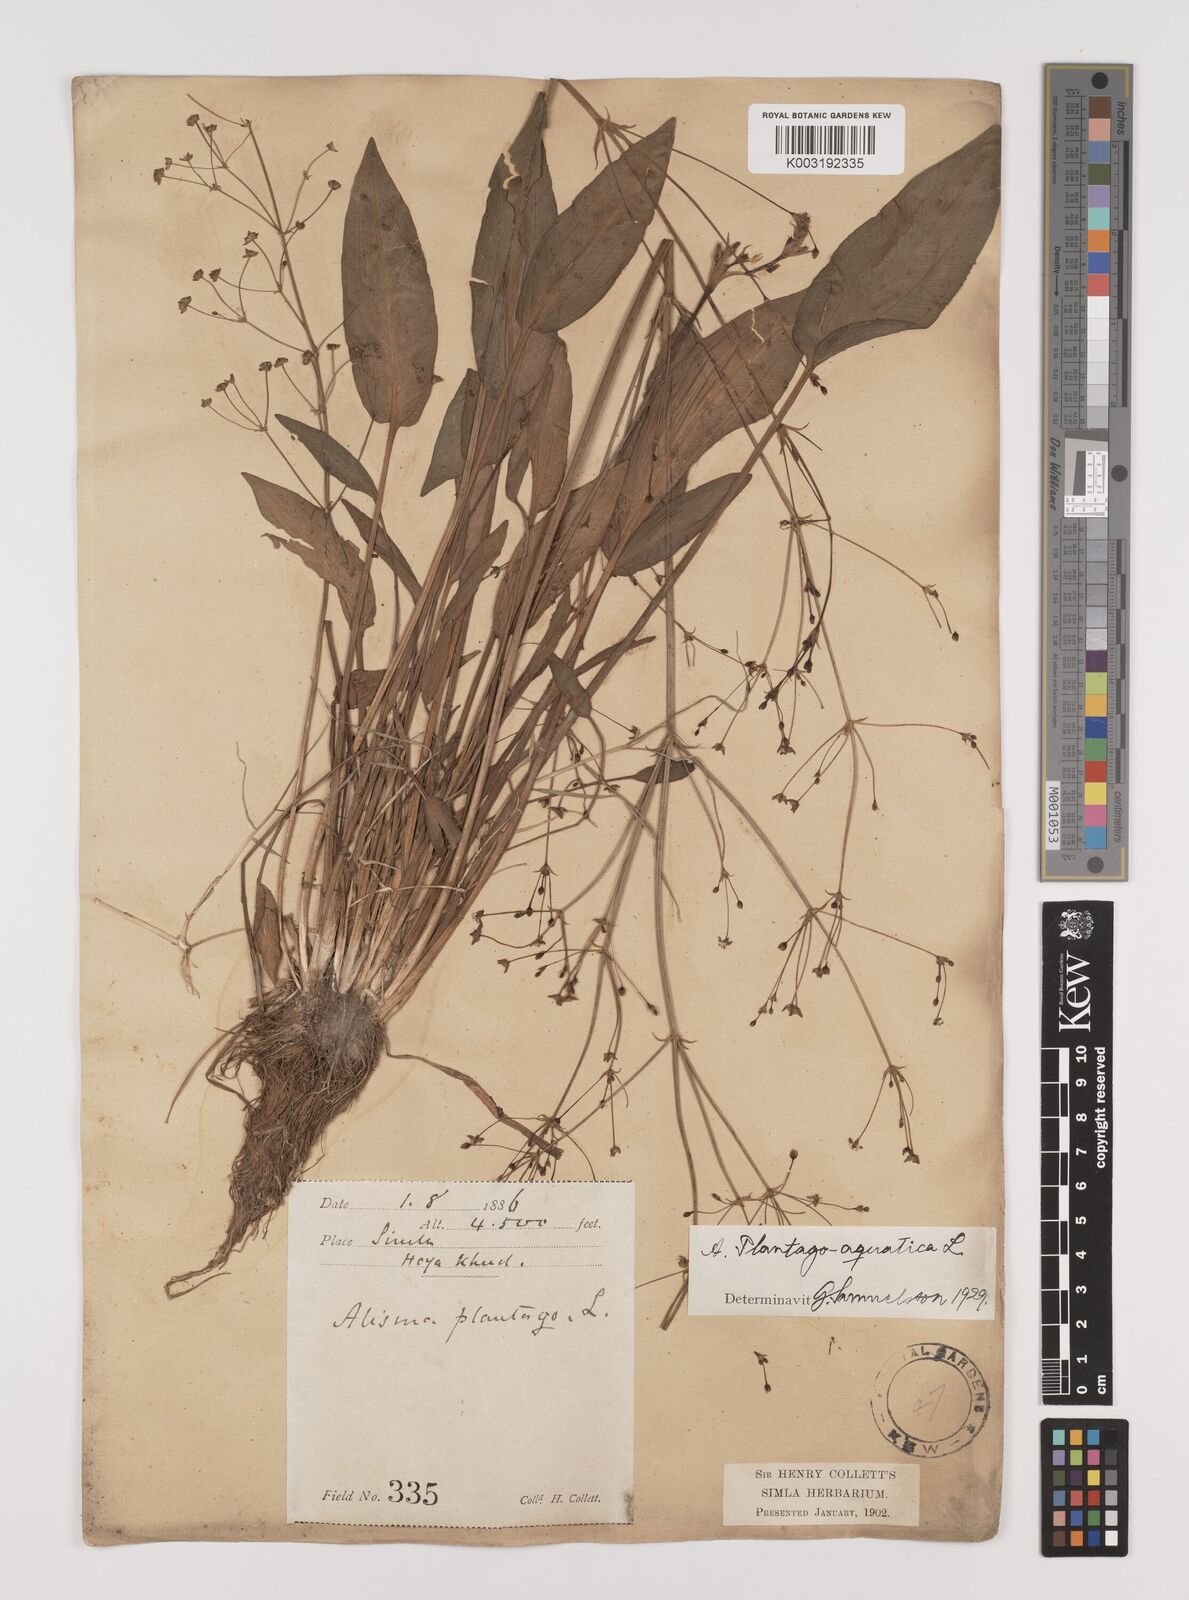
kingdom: Plantae
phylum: Tracheophyta
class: Liliopsida
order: Alismatales
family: Alismataceae
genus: Alisma
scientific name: Alisma plantago-aquatica
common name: Water-plantain
